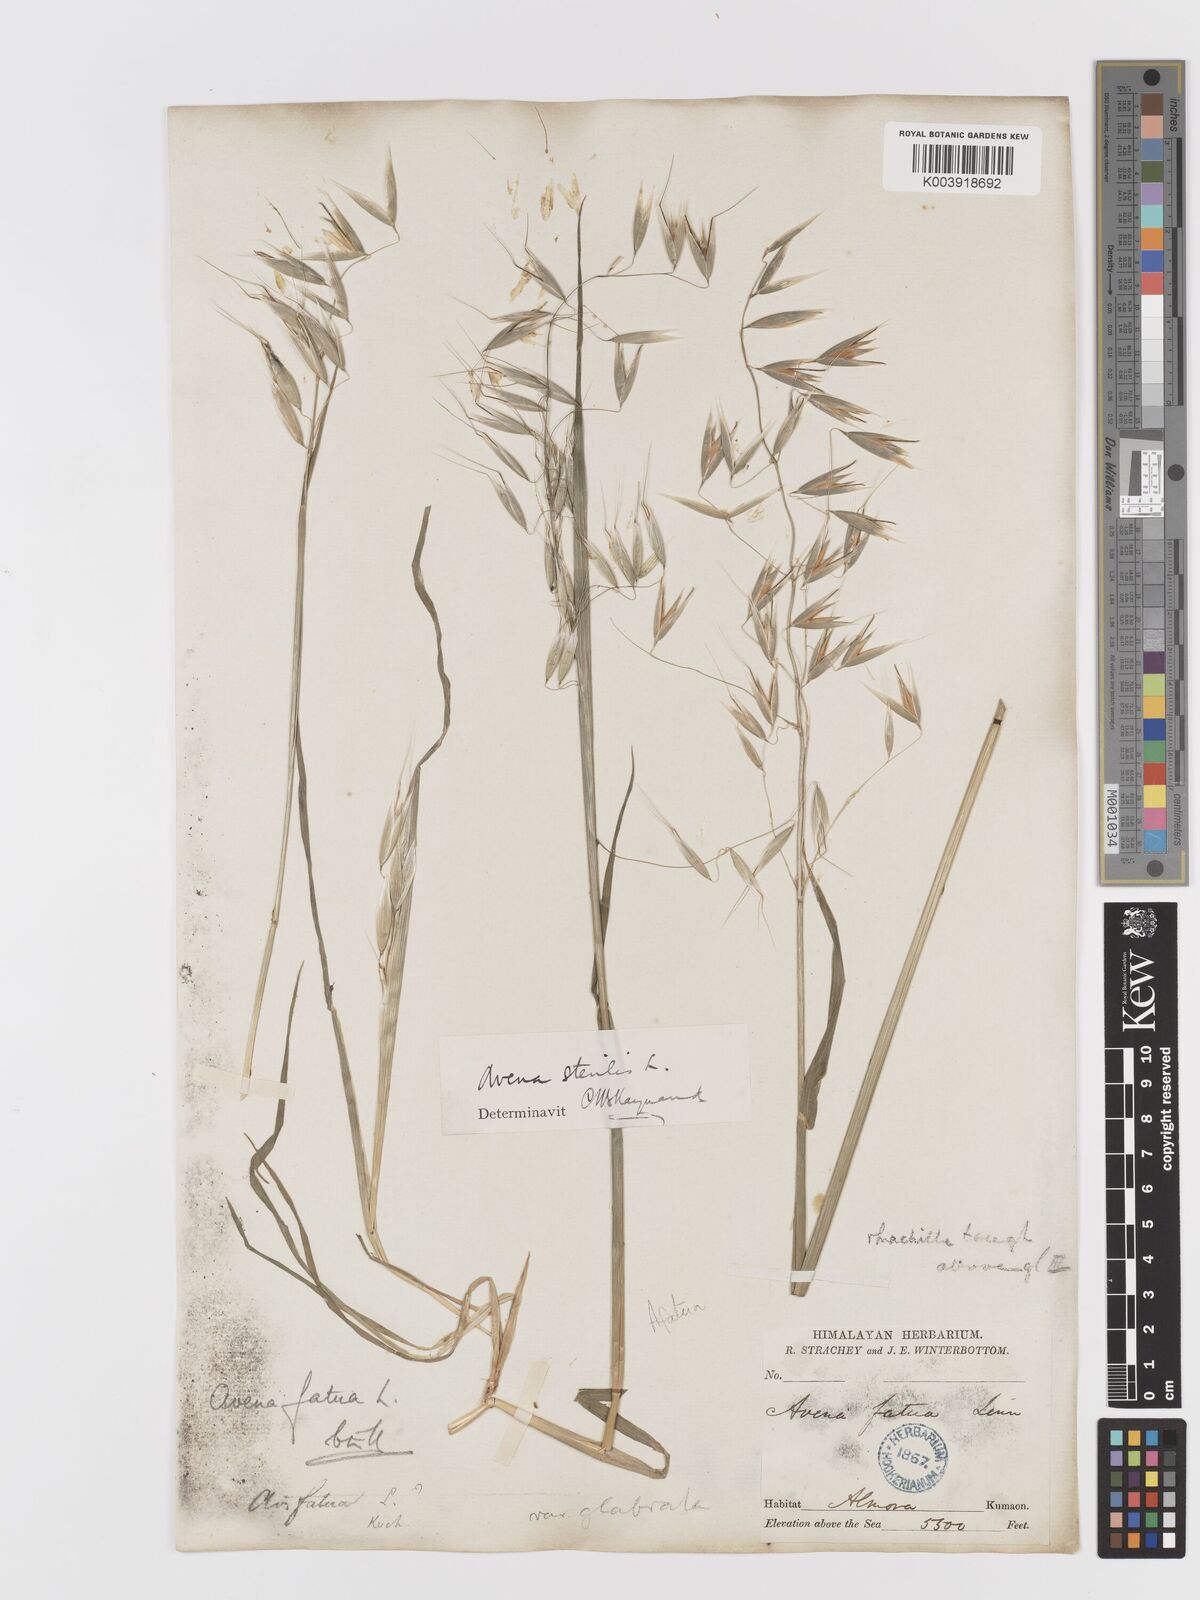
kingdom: Plantae
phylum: Tracheophyta
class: Liliopsida
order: Poales
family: Poaceae
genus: Avena
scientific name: Avena fatua
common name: Wild oat
